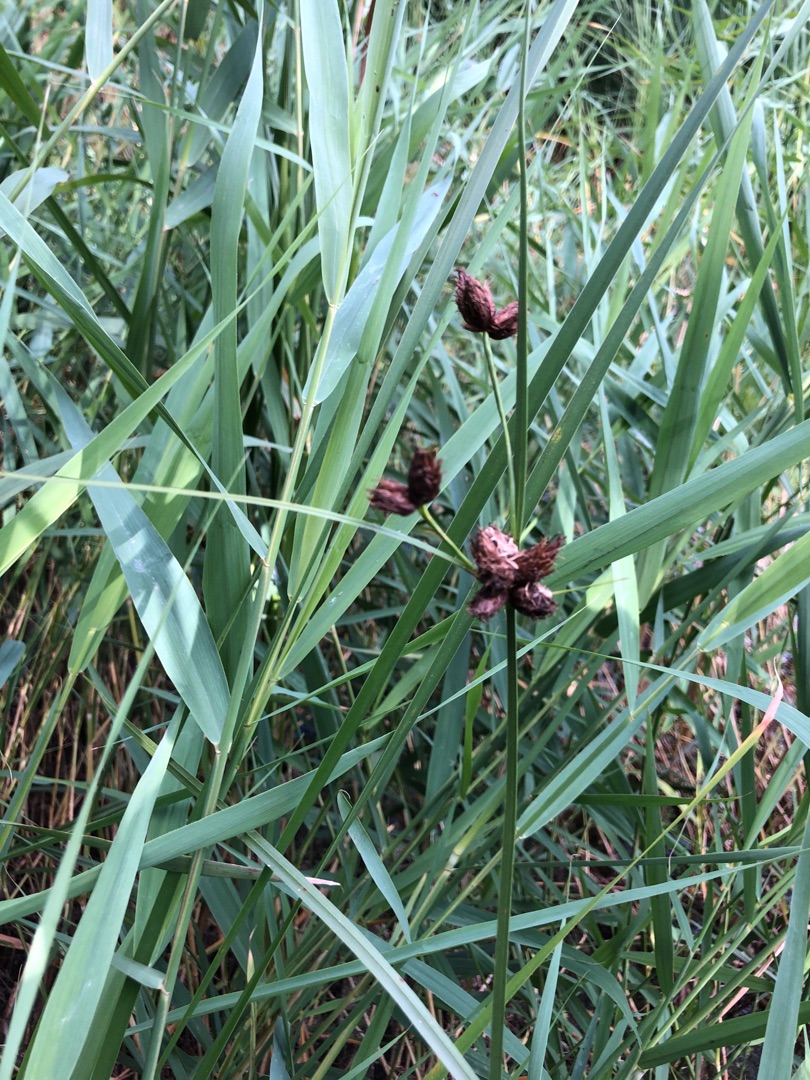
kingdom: Plantae
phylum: Tracheophyta
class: Liliopsida
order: Poales
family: Cyperaceae
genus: Bolboschoenus
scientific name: Bolboschoenus maritimus
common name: Strand-kogleaks
